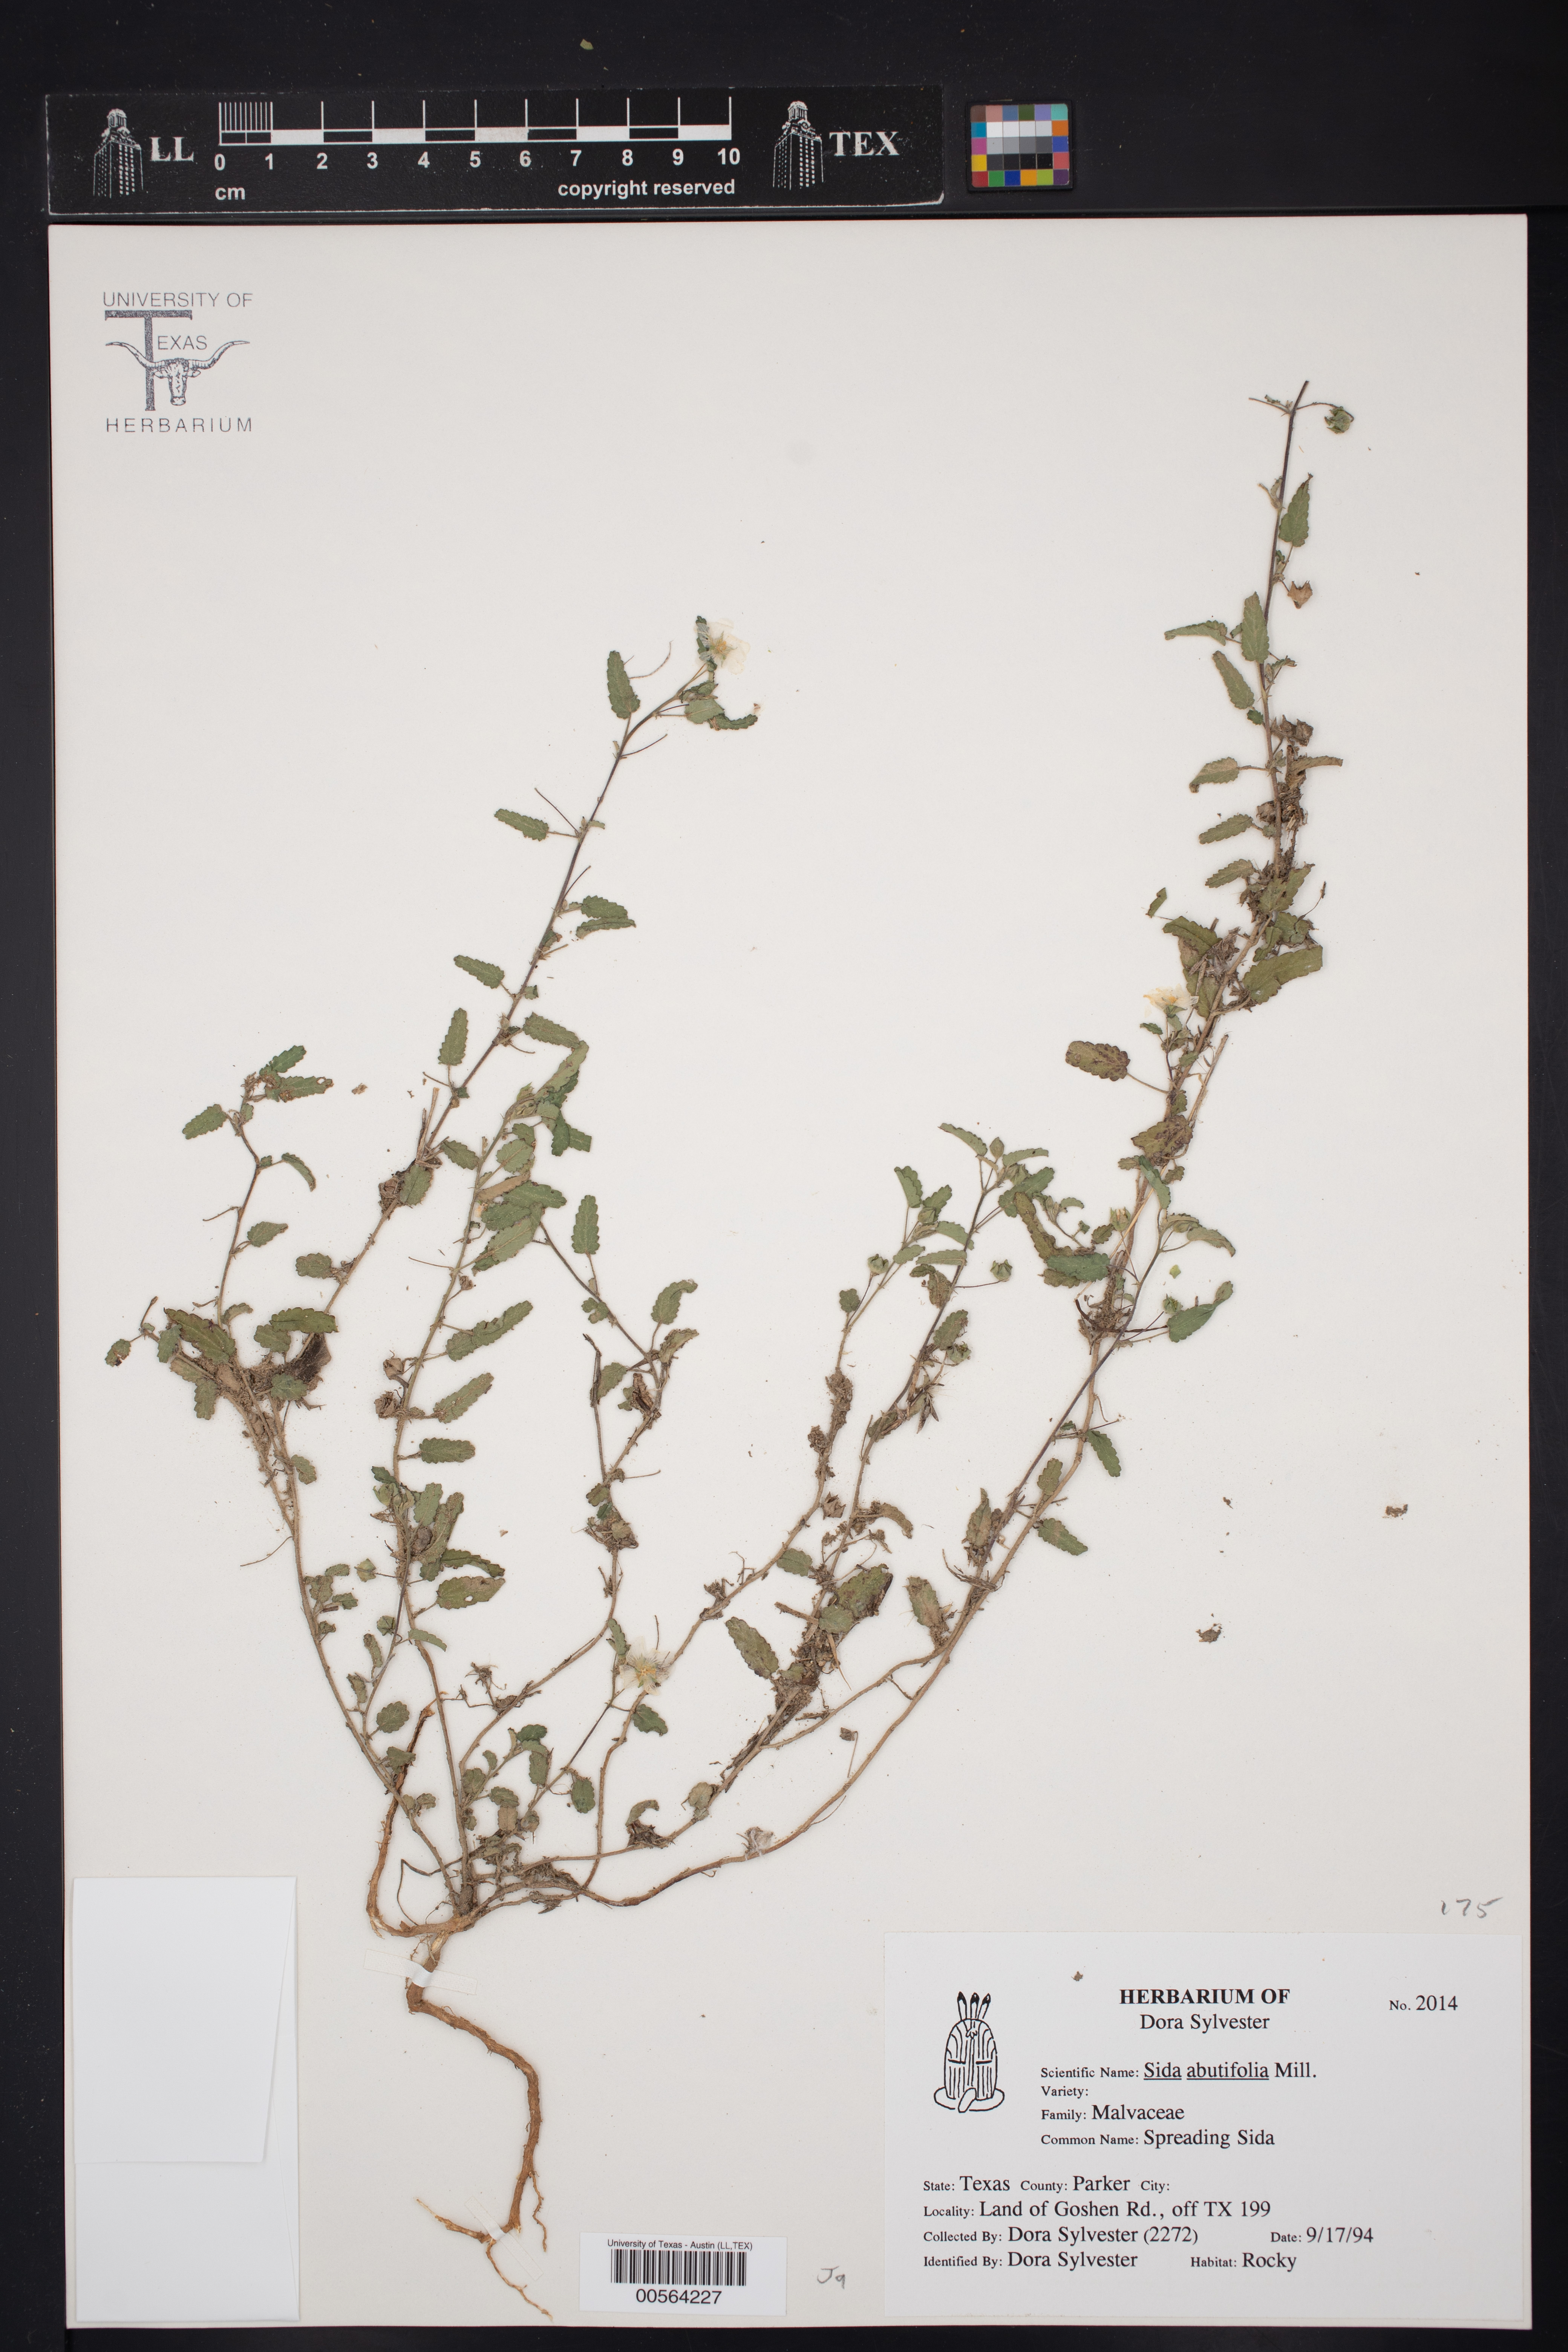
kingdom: Plantae
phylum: Tracheophyta
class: Magnoliopsida
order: Malvales
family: Malvaceae
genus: Sida
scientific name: Sida abutilifolia
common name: Spreading fanpetals
